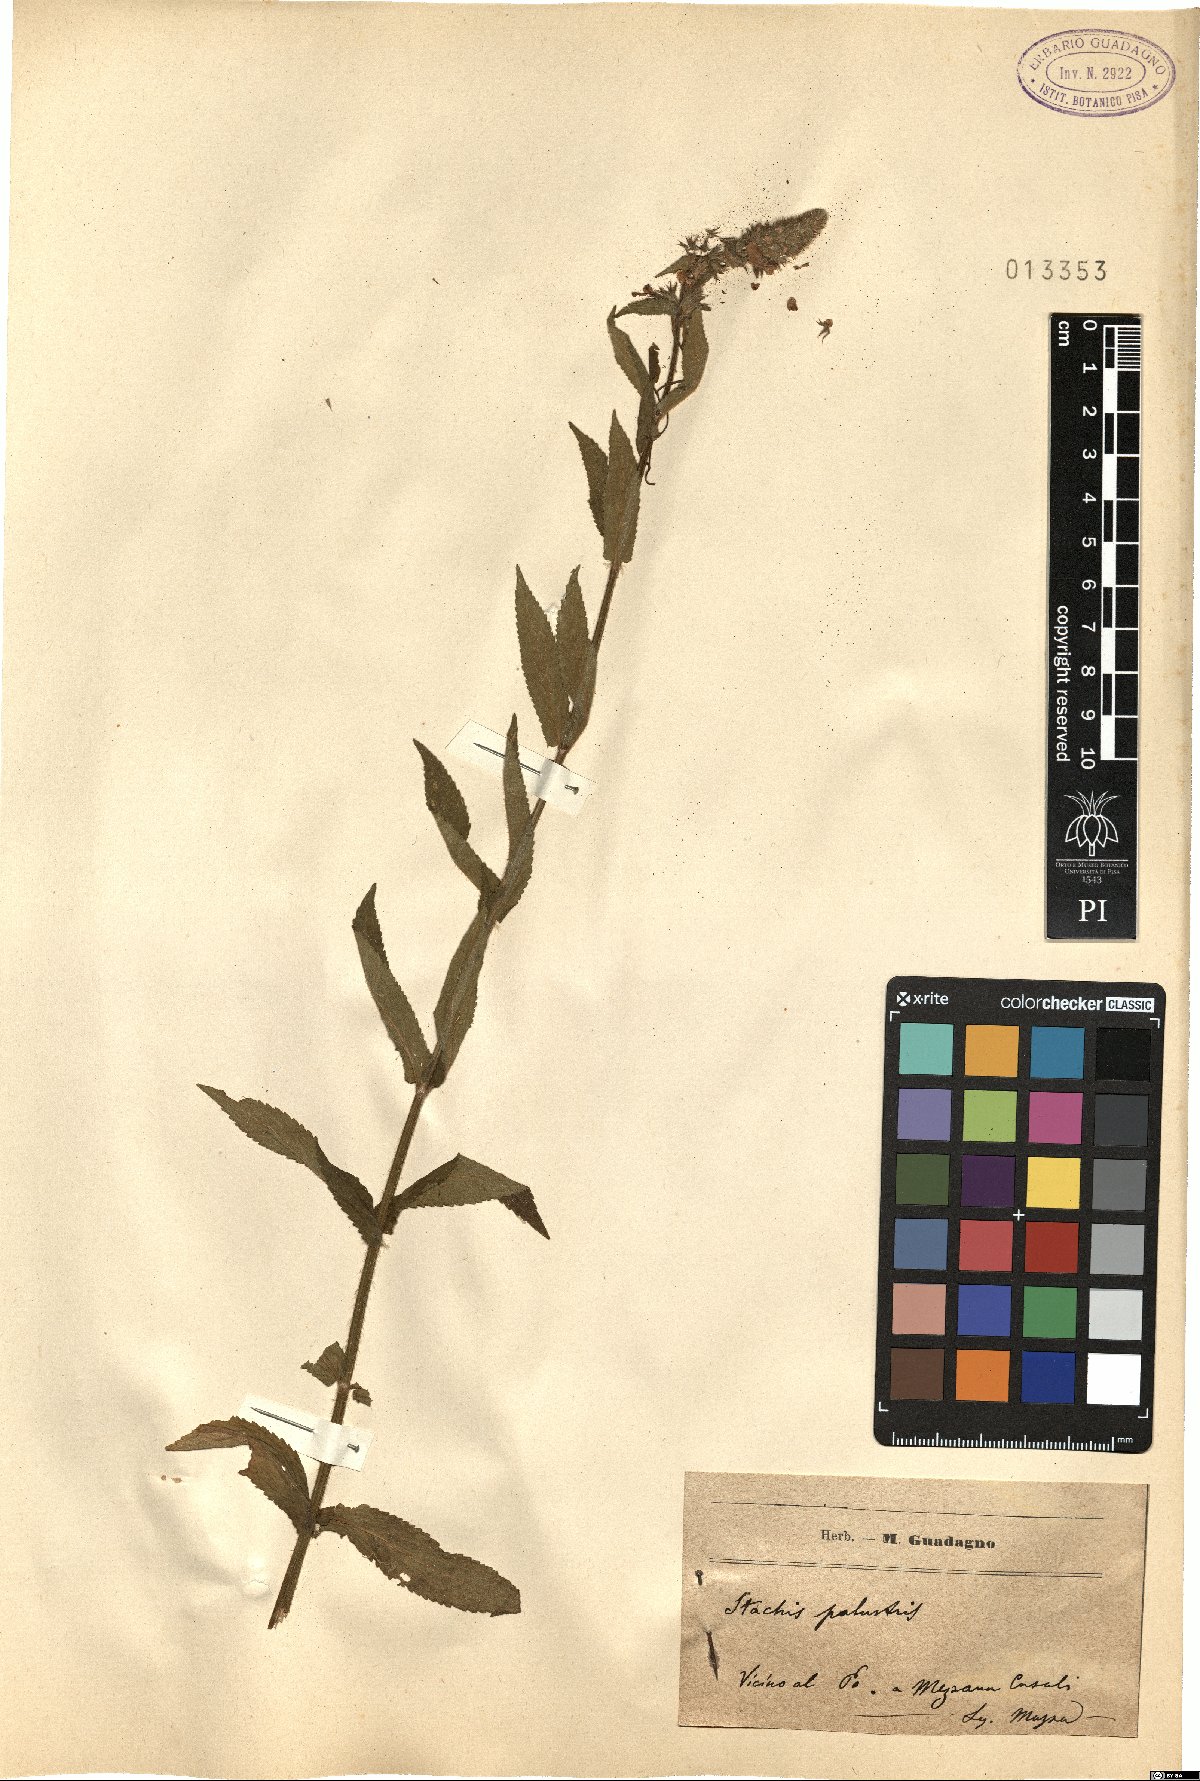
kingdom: Plantae
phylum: Tracheophyta
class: Magnoliopsida
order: Lamiales
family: Lamiaceae
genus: Stachys
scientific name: Stachys palustris
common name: Marsh woundwort
